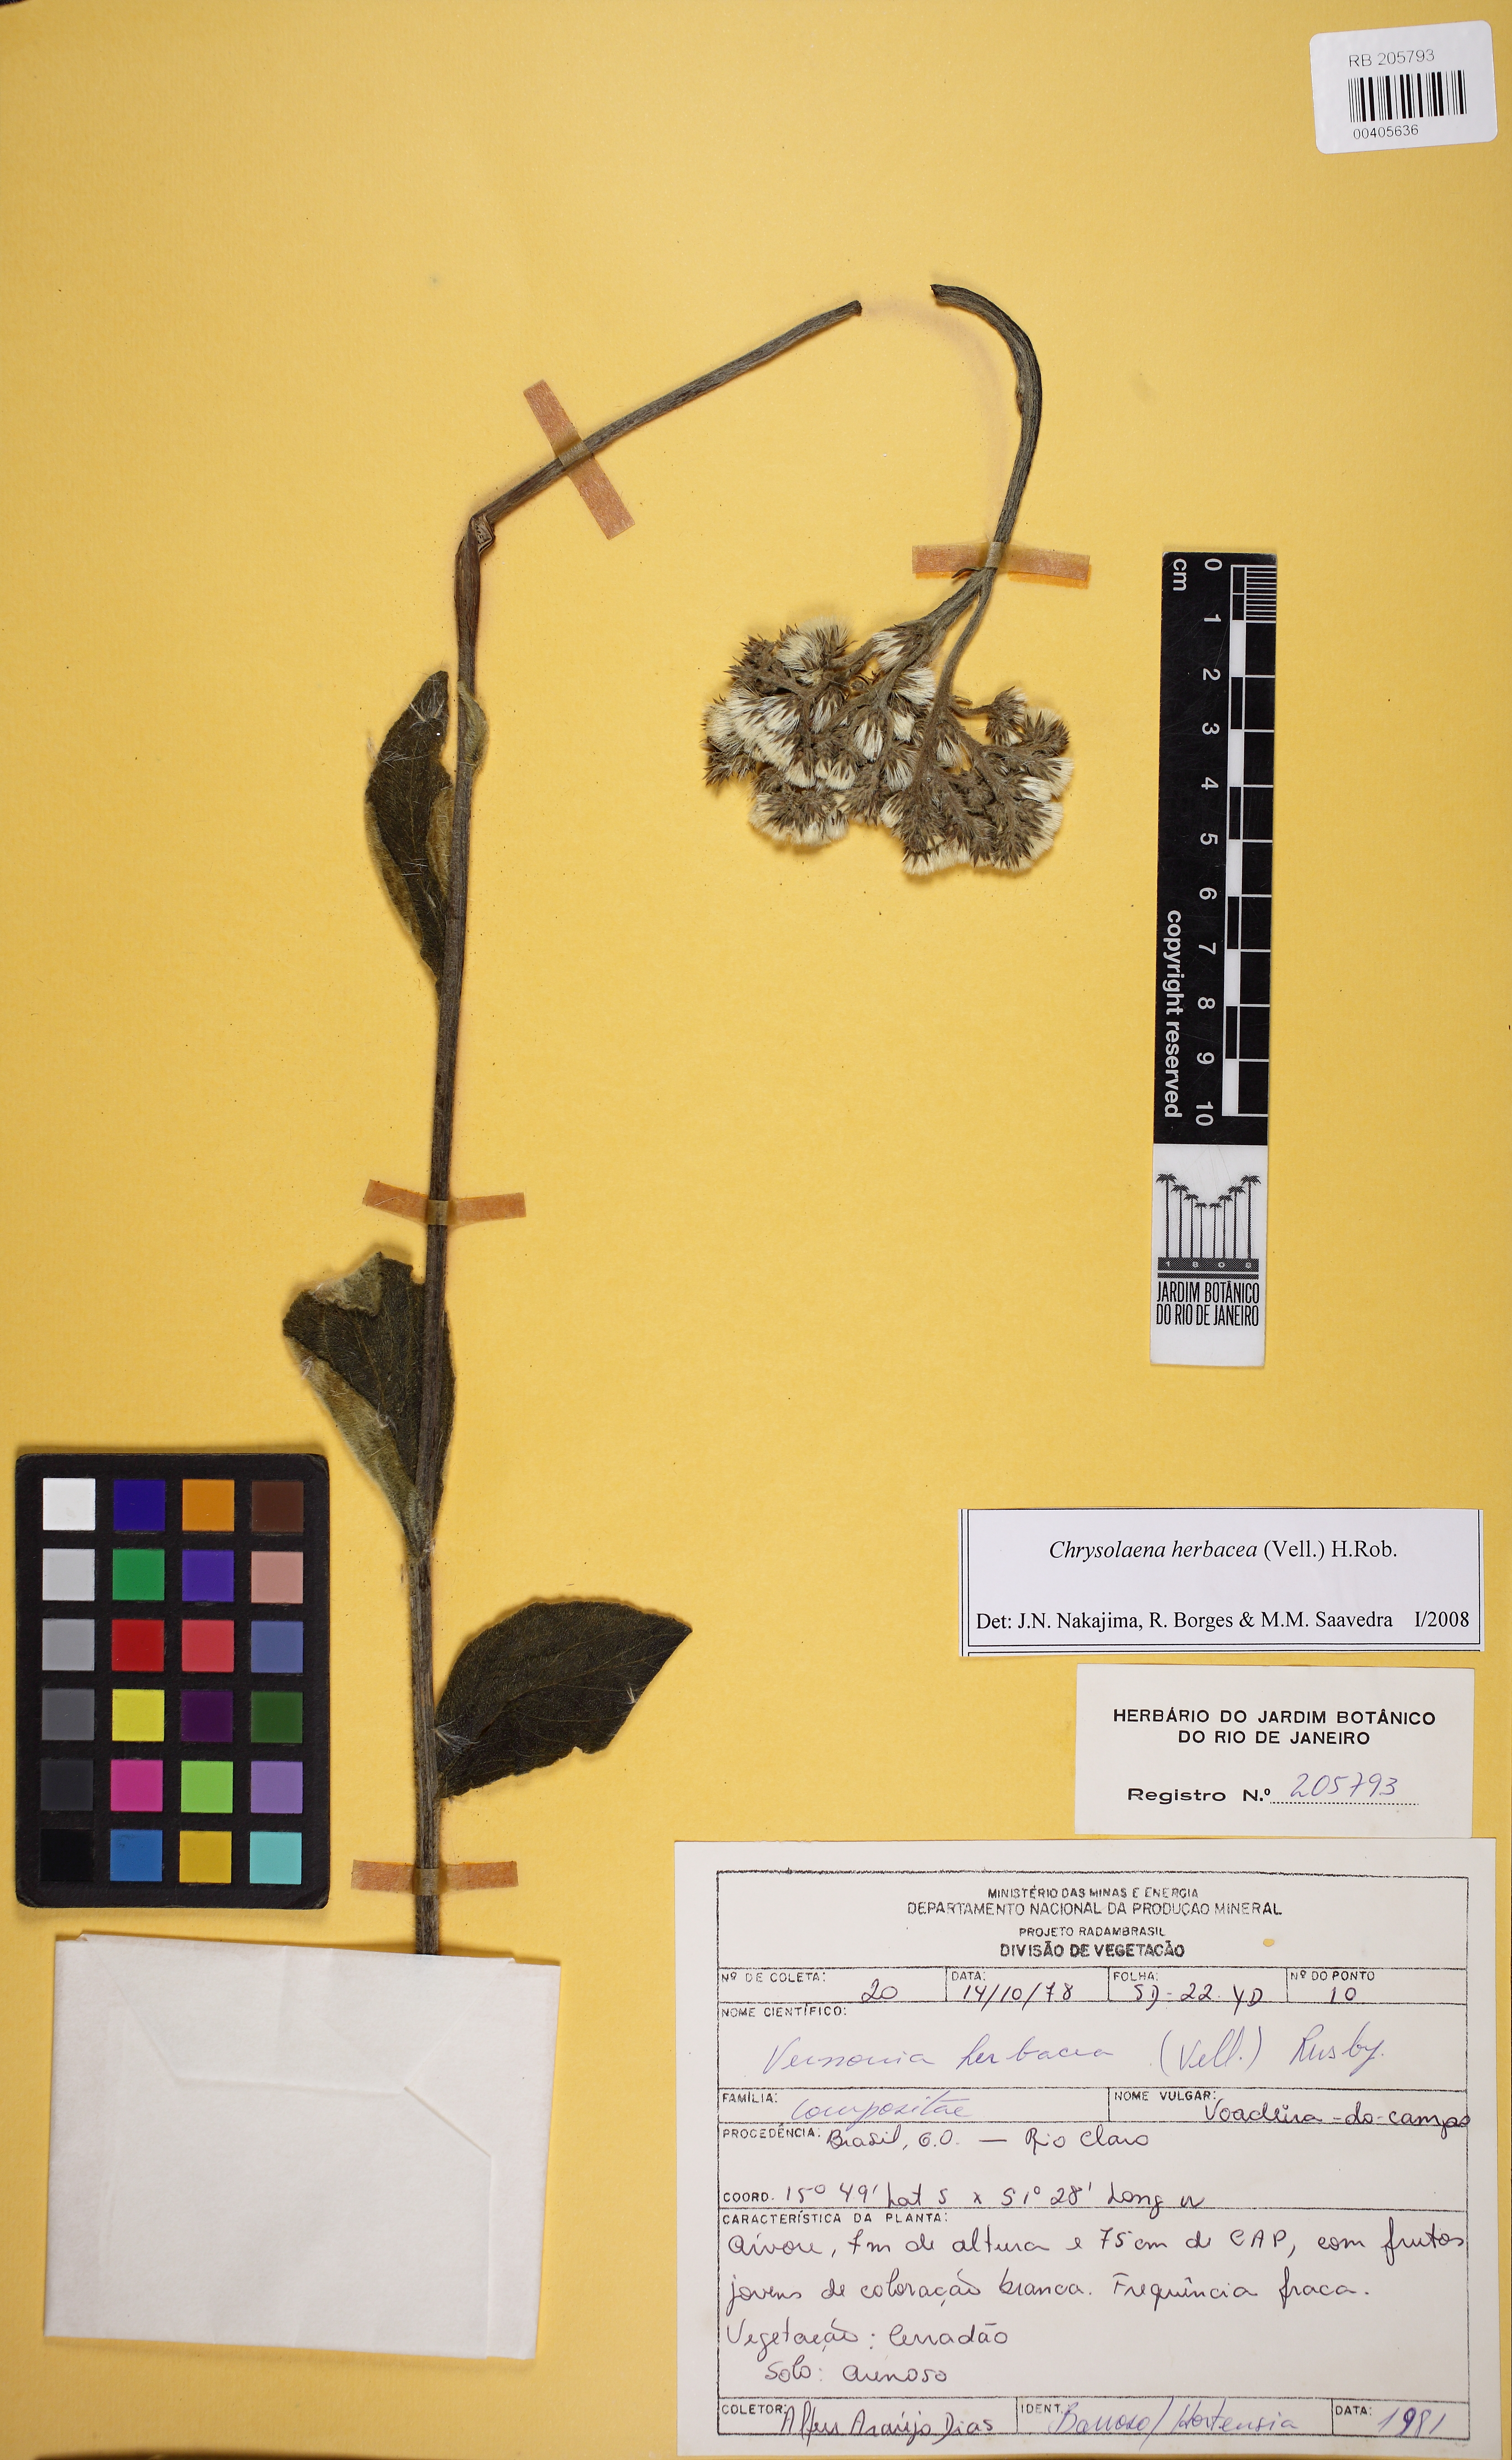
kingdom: Plantae
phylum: Tracheophyta
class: Magnoliopsida
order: Asterales
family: Asteraceae
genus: Chrysolaena
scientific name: Chrysolaena obovata
